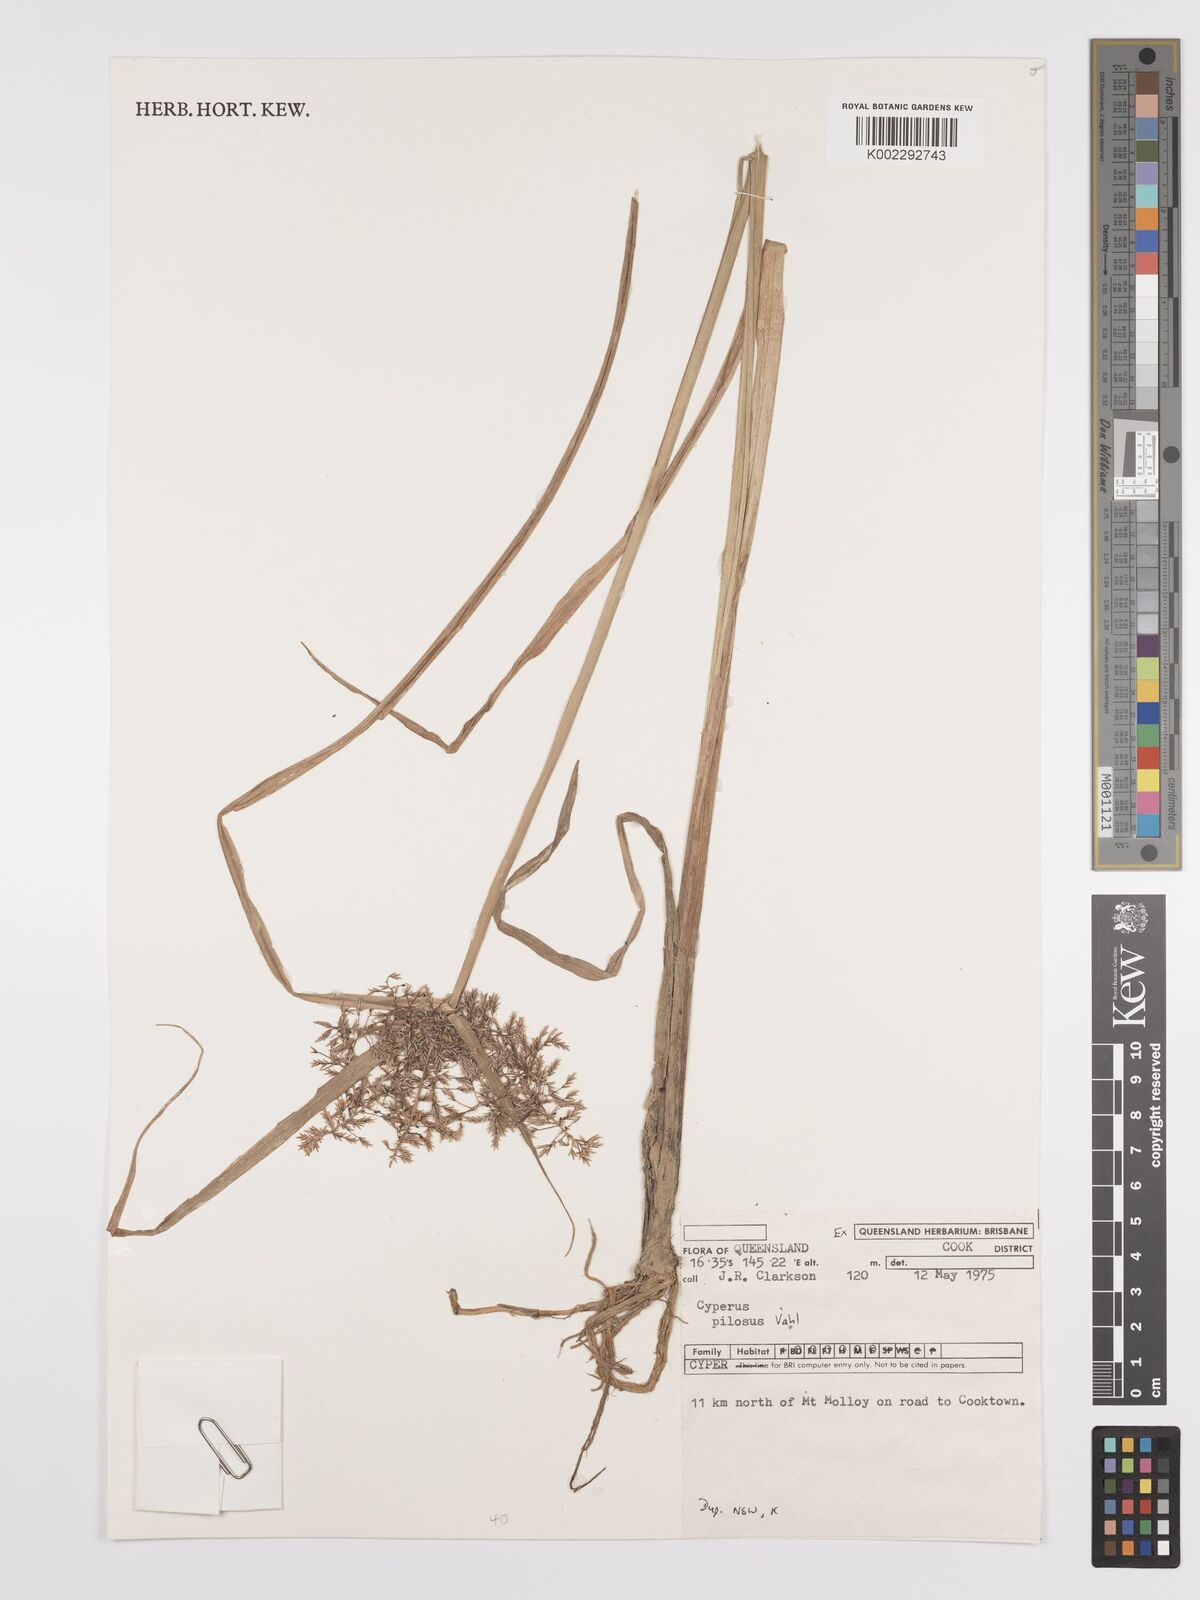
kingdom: Plantae
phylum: Tracheophyta
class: Liliopsida
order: Poales
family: Cyperaceae
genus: Cyperus
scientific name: Cyperus pilosus
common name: Fuzzy flatsedge
